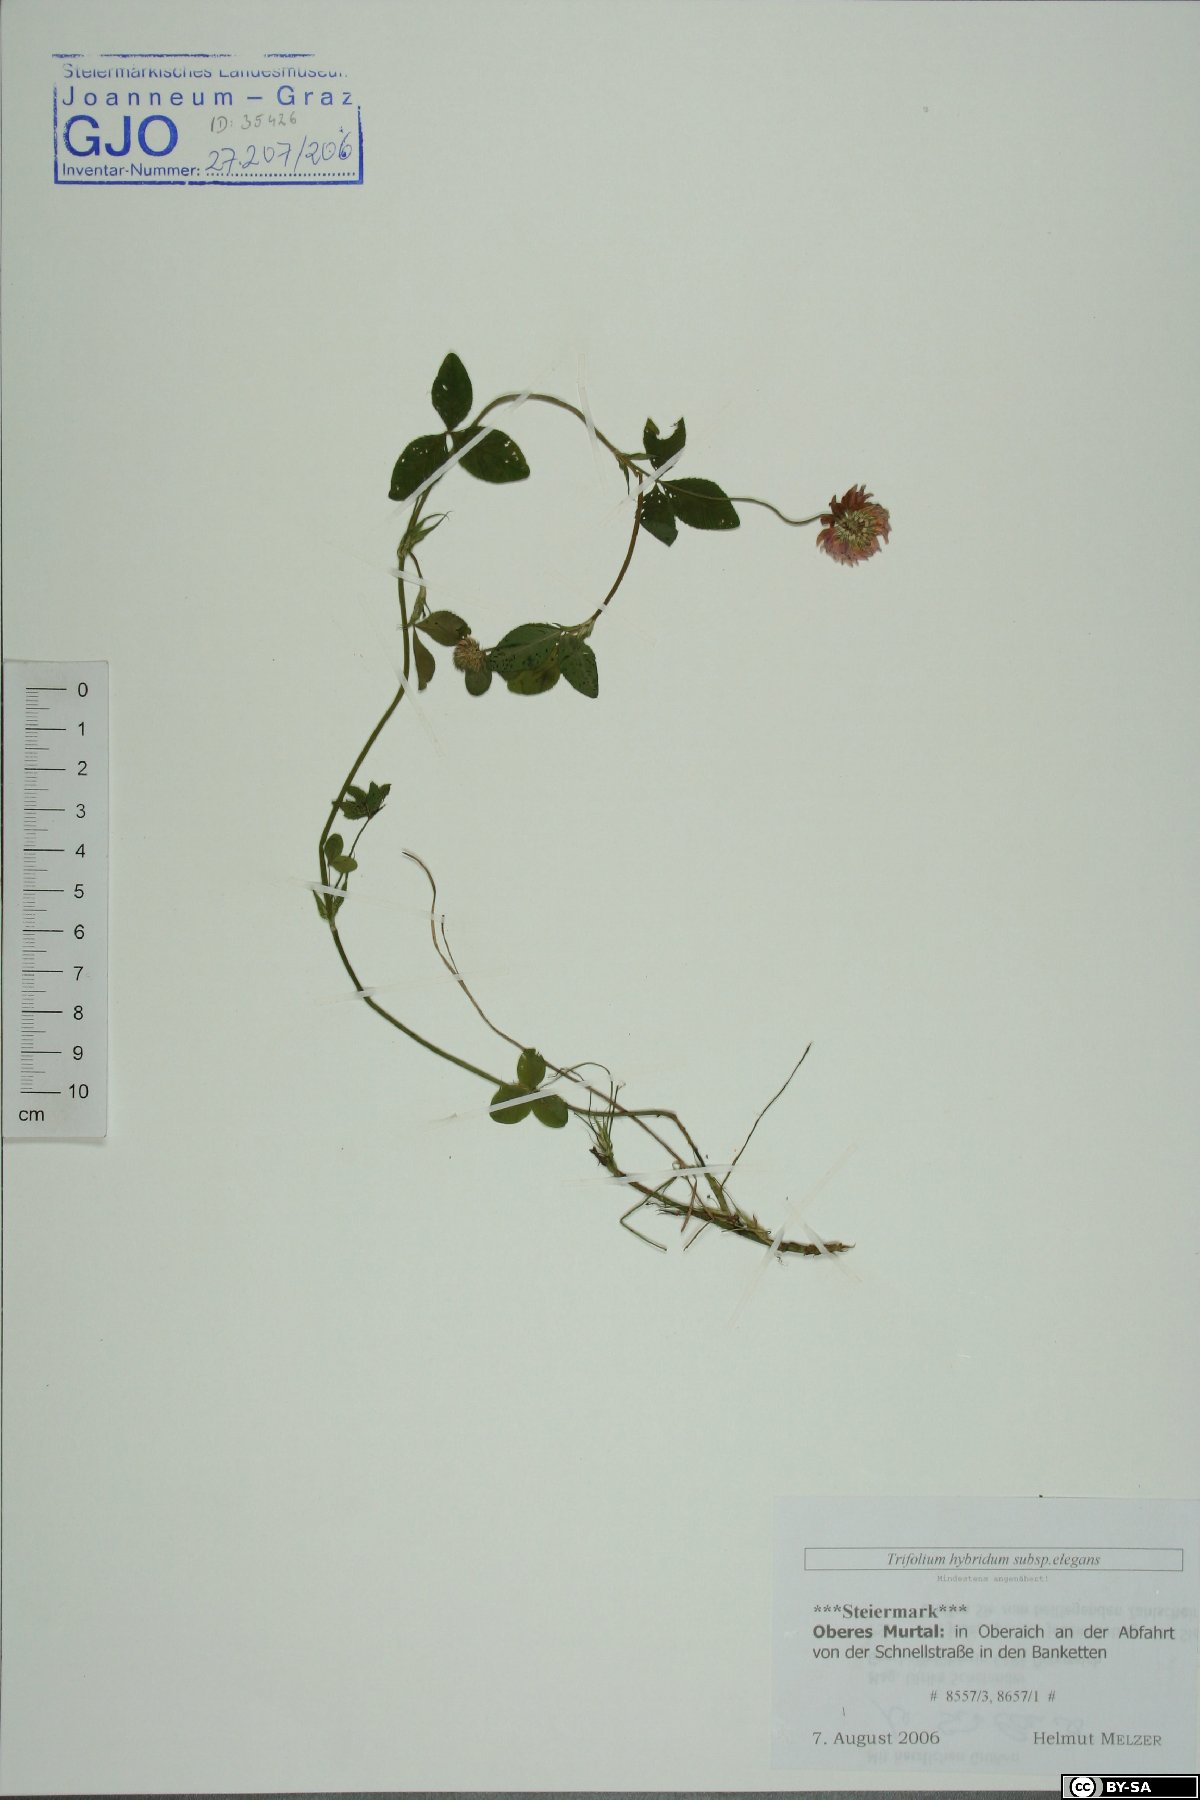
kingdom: Plantae
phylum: Tracheophyta
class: Magnoliopsida
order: Fabales
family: Fabaceae
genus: Trifolium
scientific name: Trifolium hybridum
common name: Alsike clover
